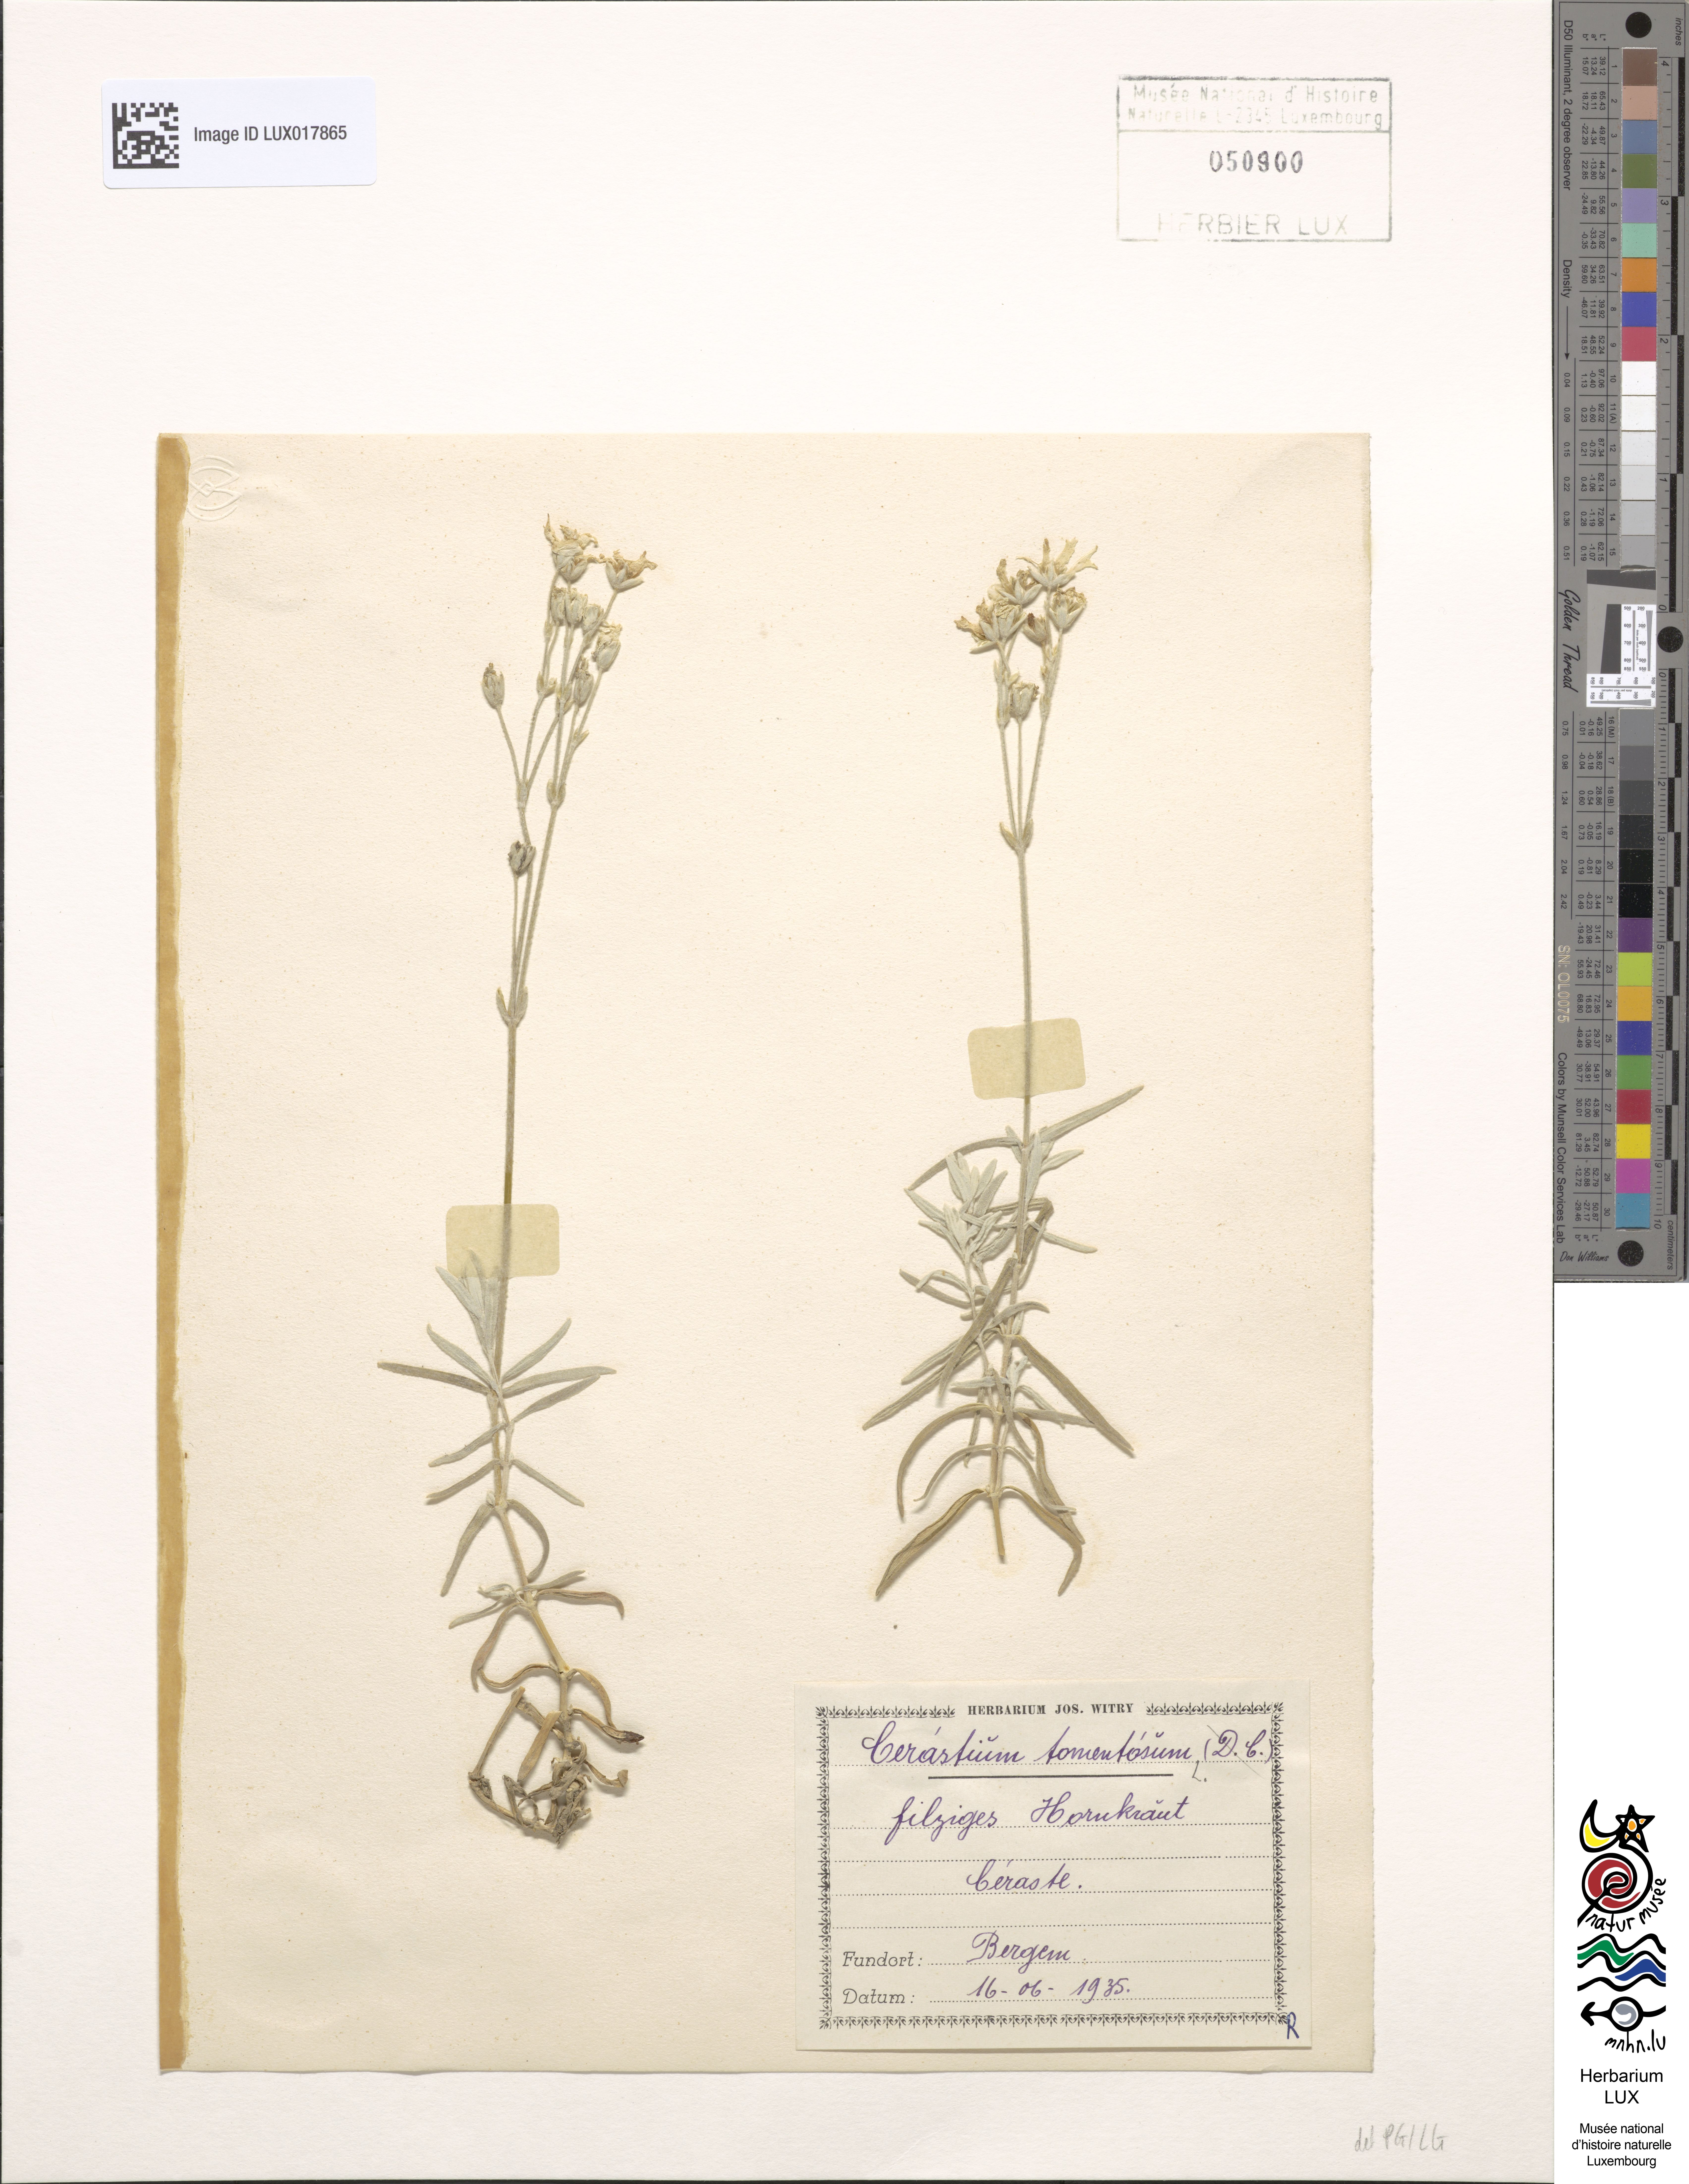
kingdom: Plantae
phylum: Tracheophyta
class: Magnoliopsida
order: Caryophyllales
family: Caryophyllaceae
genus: Cerastium
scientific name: Cerastium tomentosum
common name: Snow-in-summer
